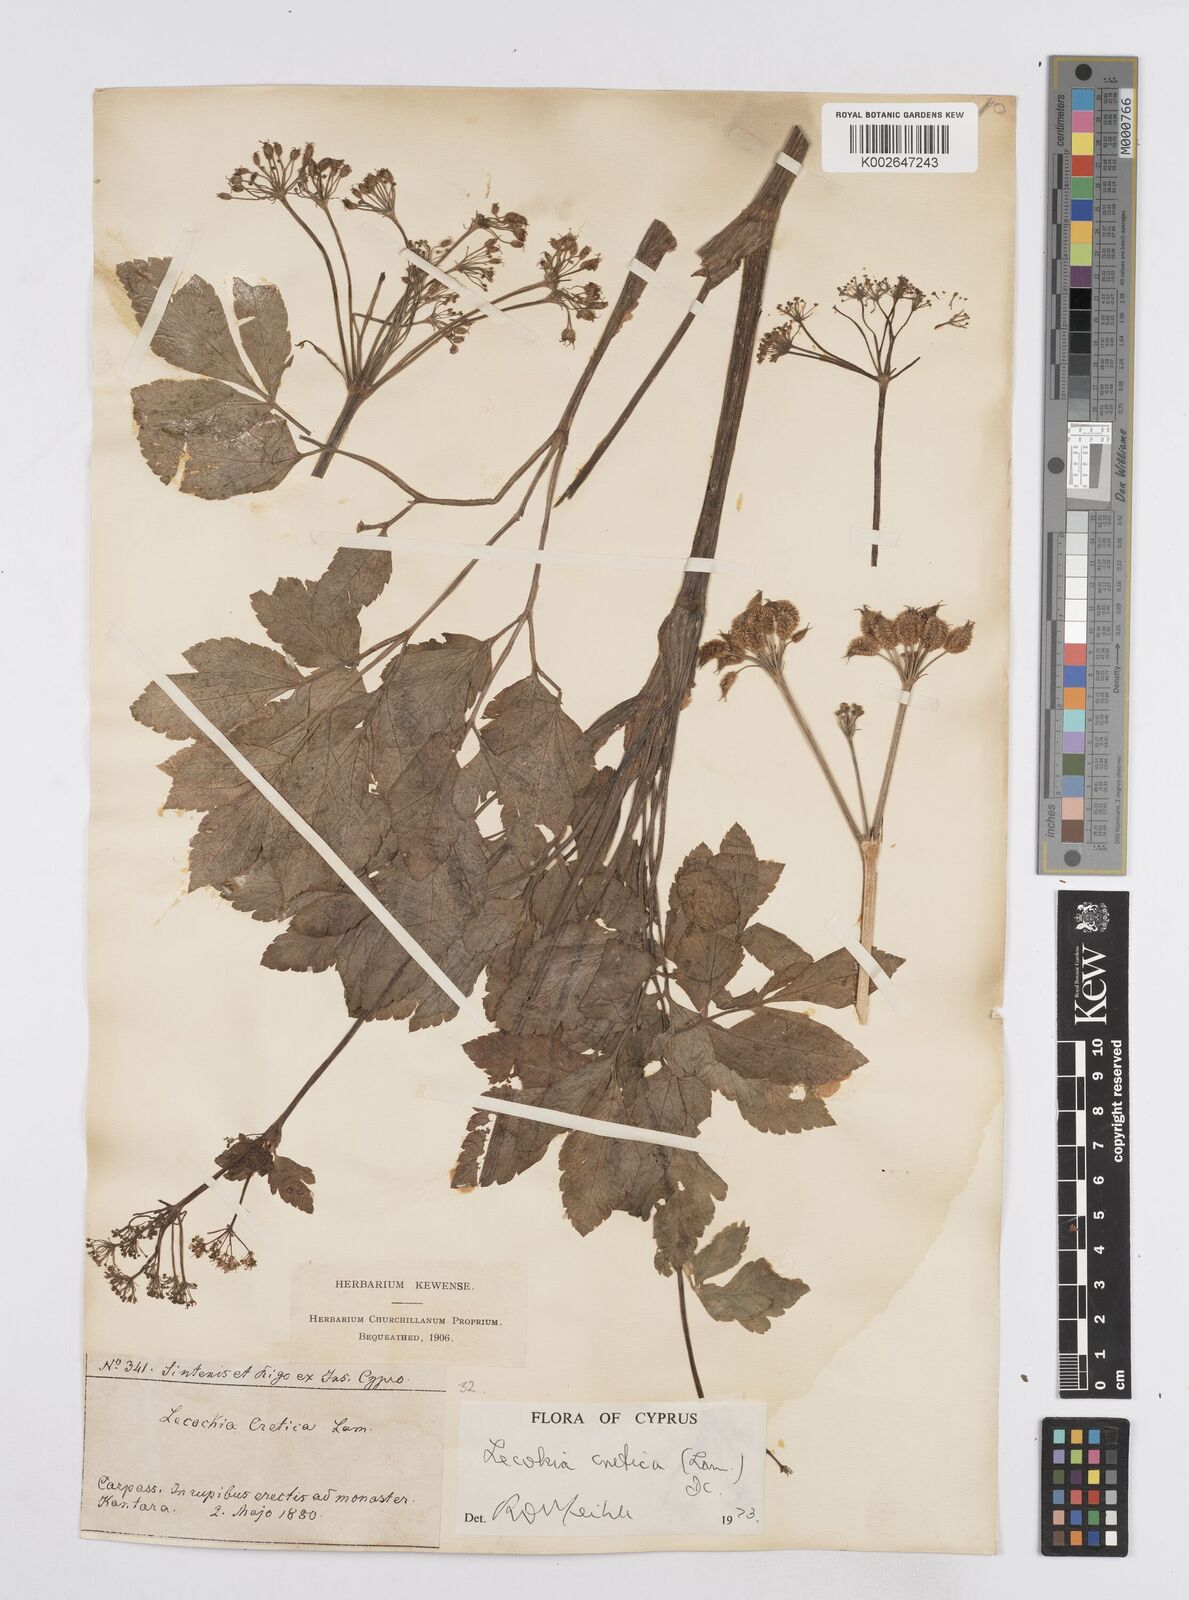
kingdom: Plantae
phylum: Tracheophyta
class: Magnoliopsida
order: Apiales
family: Apiaceae
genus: Lecokia
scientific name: Lecokia cretica
